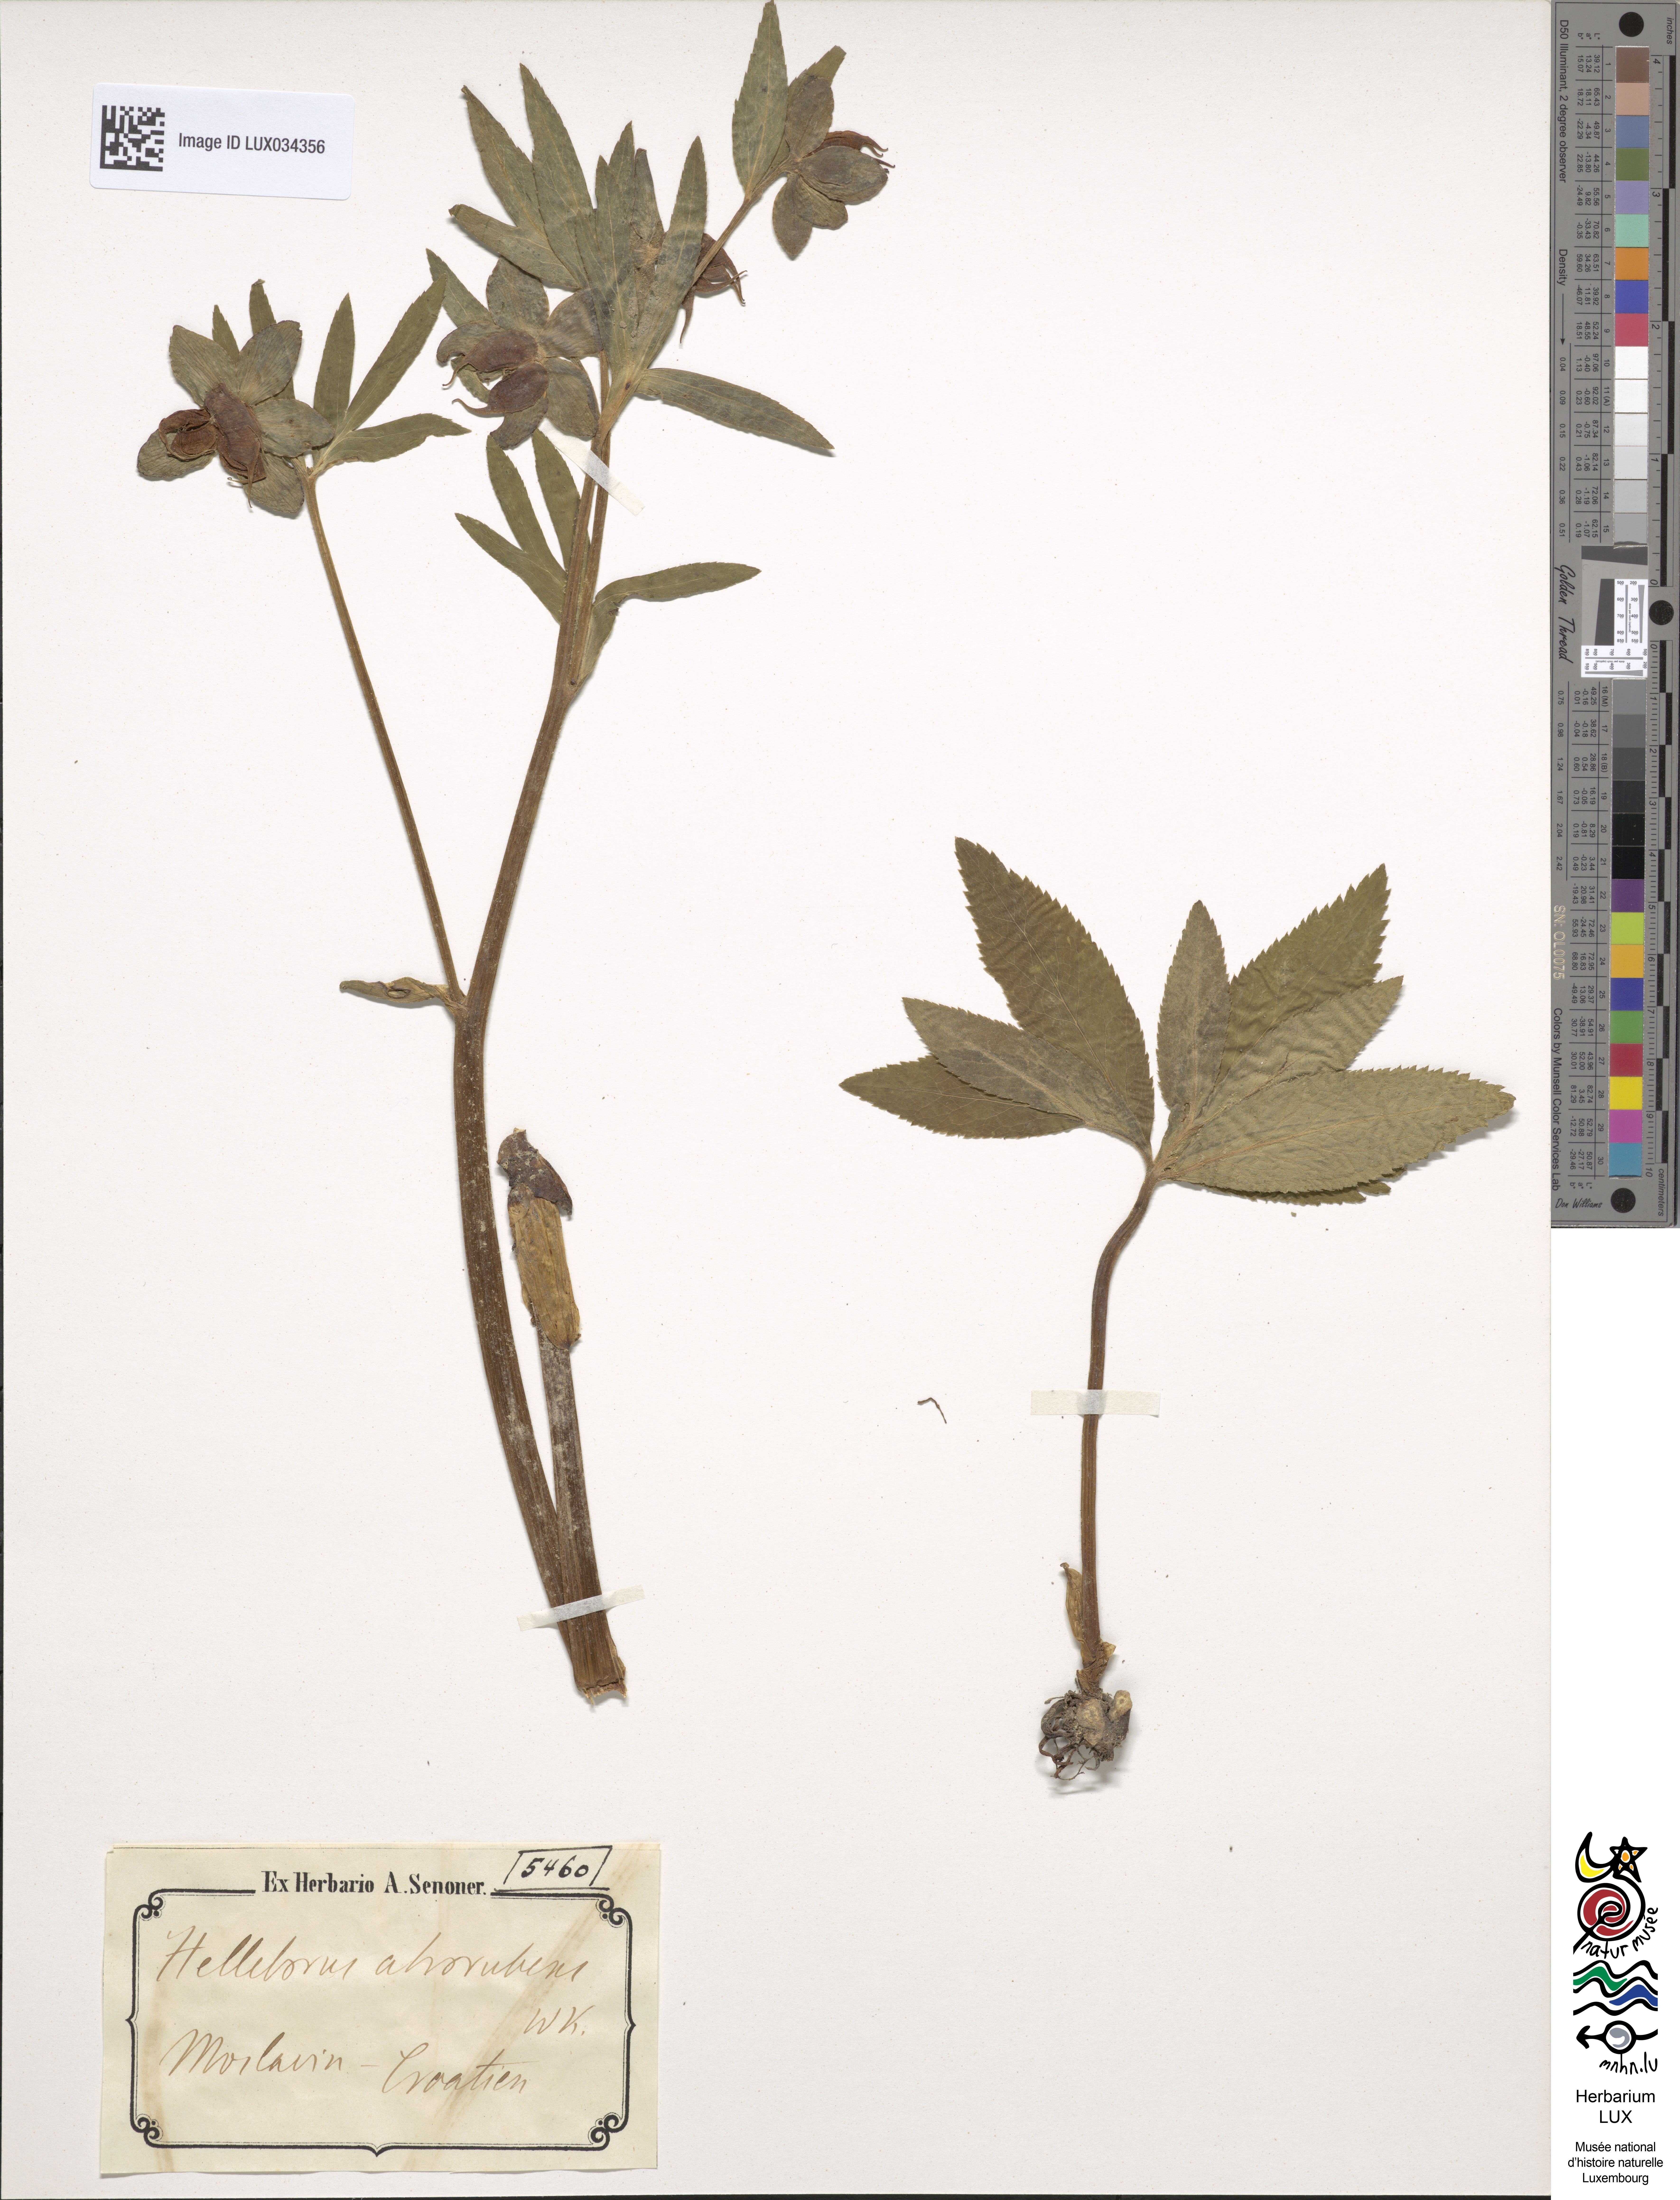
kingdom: Plantae
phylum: Tracheophyta
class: Magnoliopsida
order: Ranunculales
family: Ranunculaceae
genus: Helleborus
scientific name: Helleborus dumetorum
